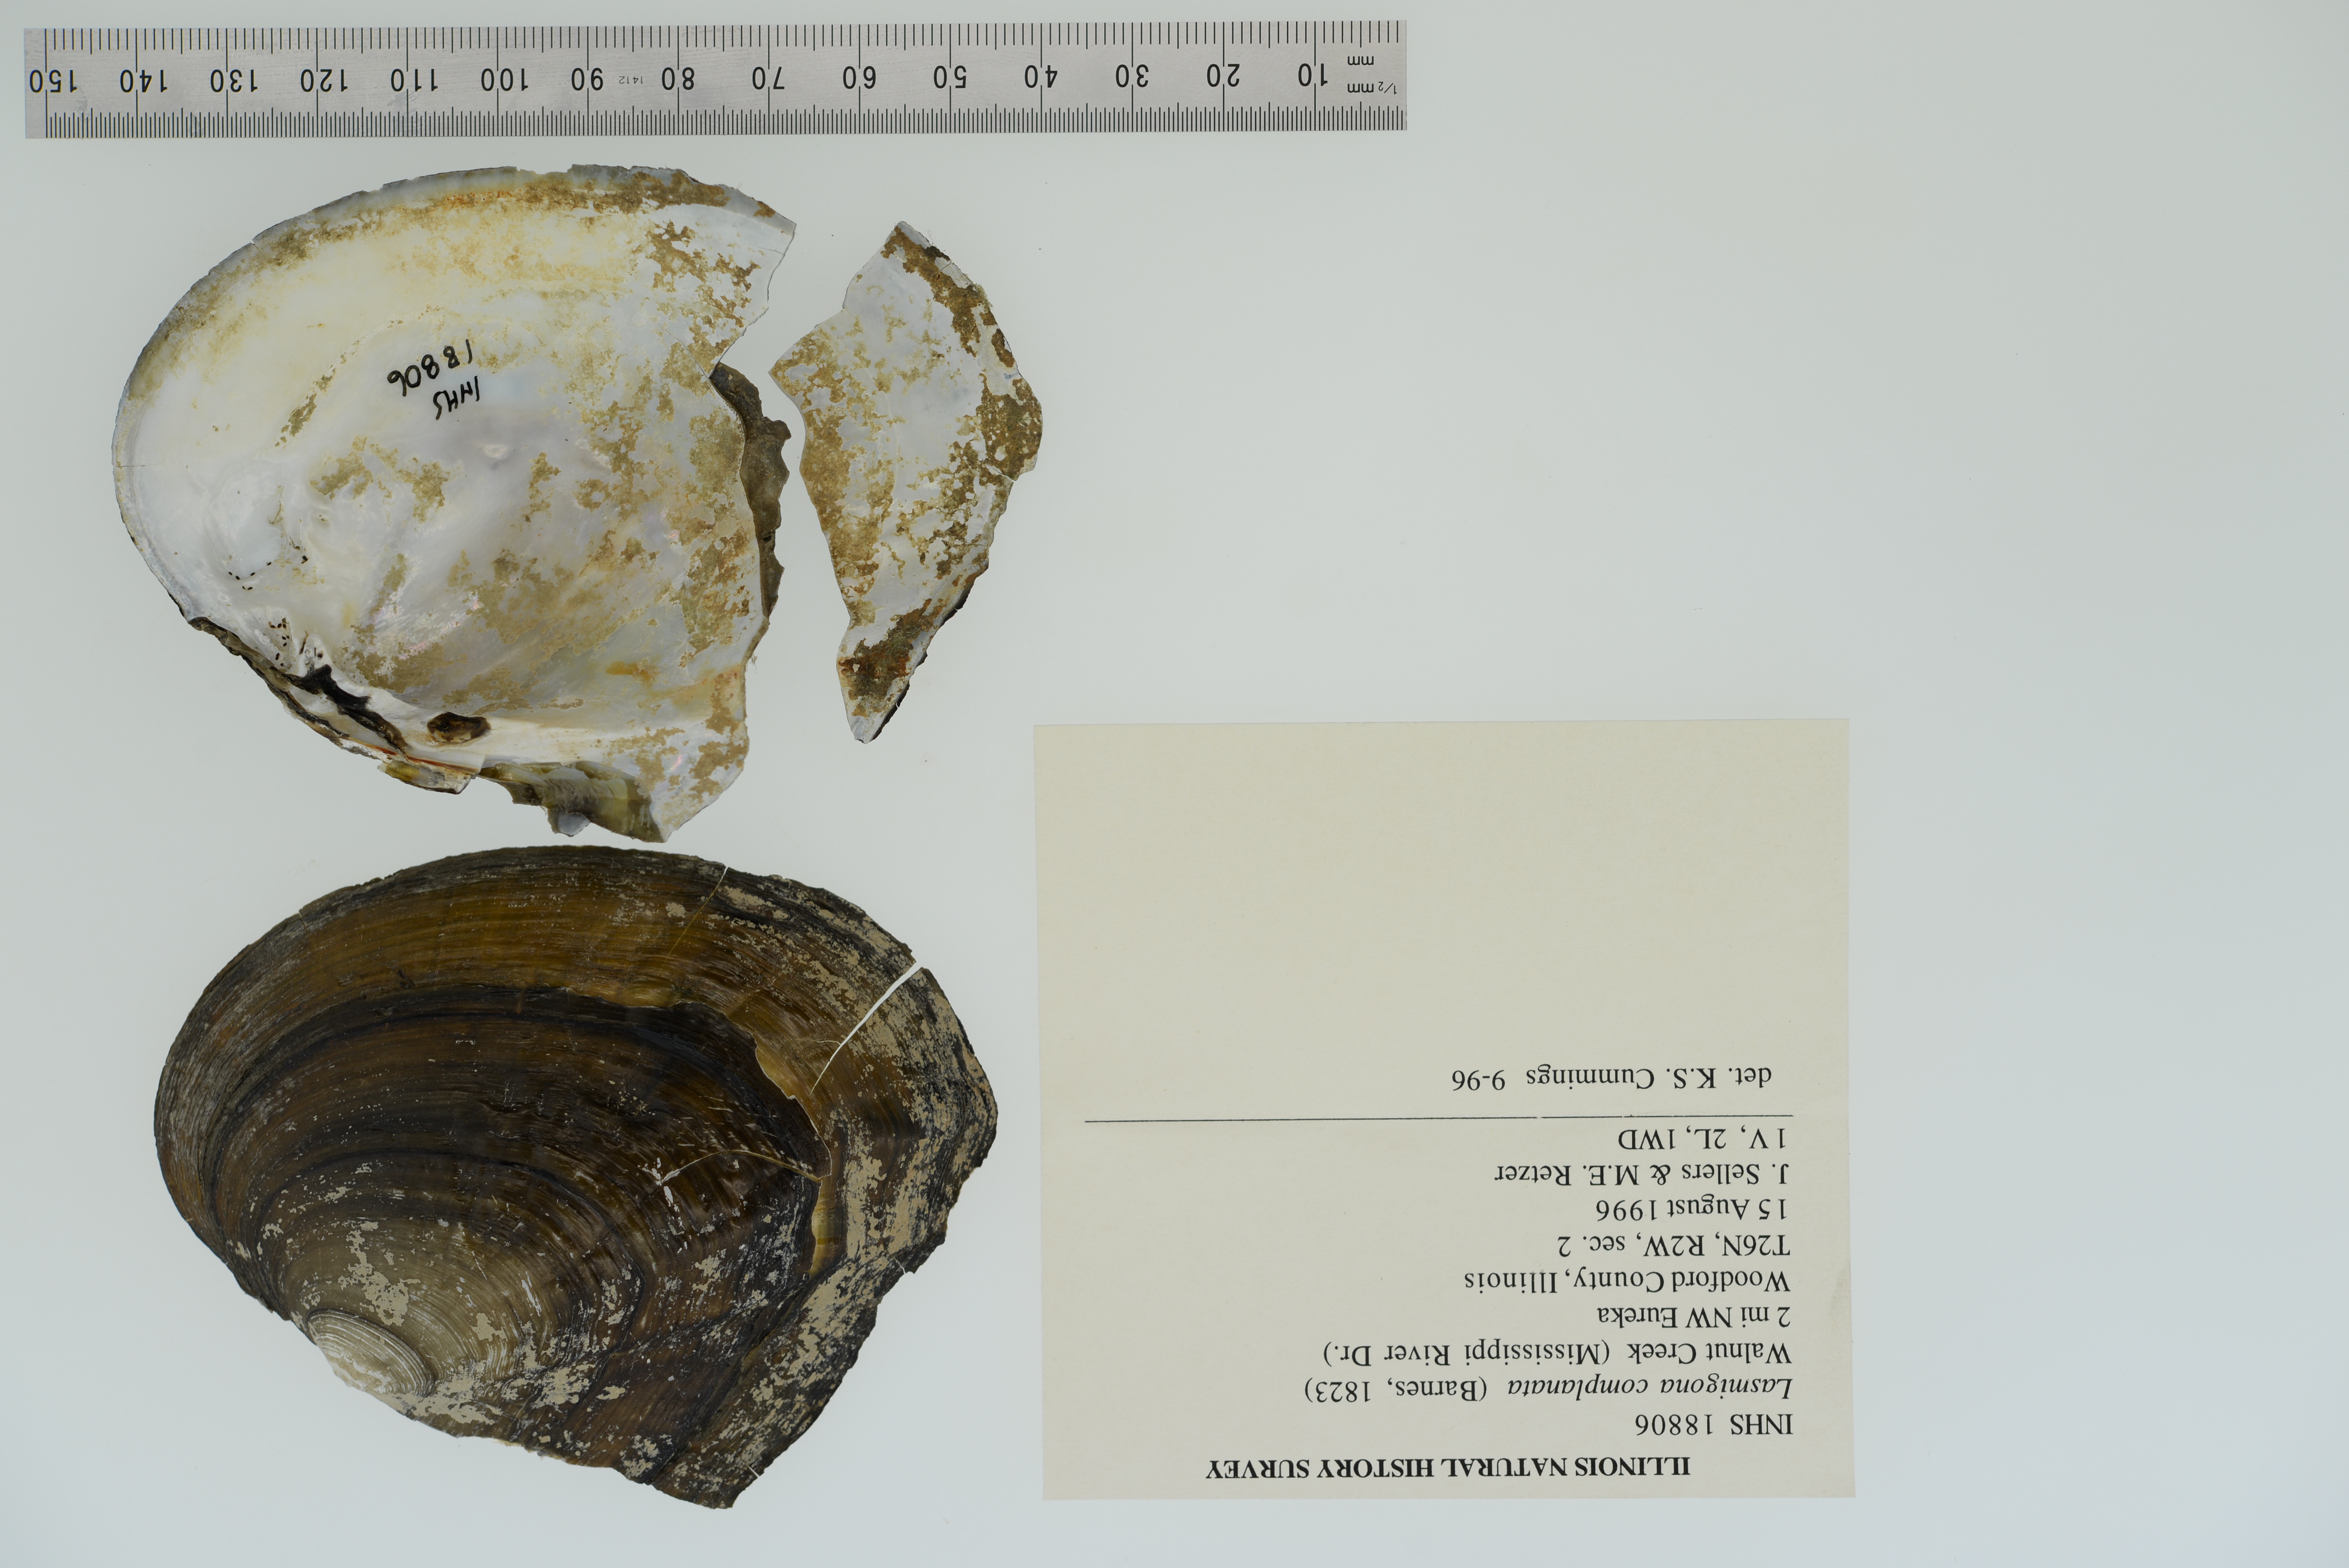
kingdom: Animalia
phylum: Mollusca
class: Bivalvia
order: Unionida
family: Unionidae
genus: Lasmigona
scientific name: Lasmigona complanata
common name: White heelsplitter
